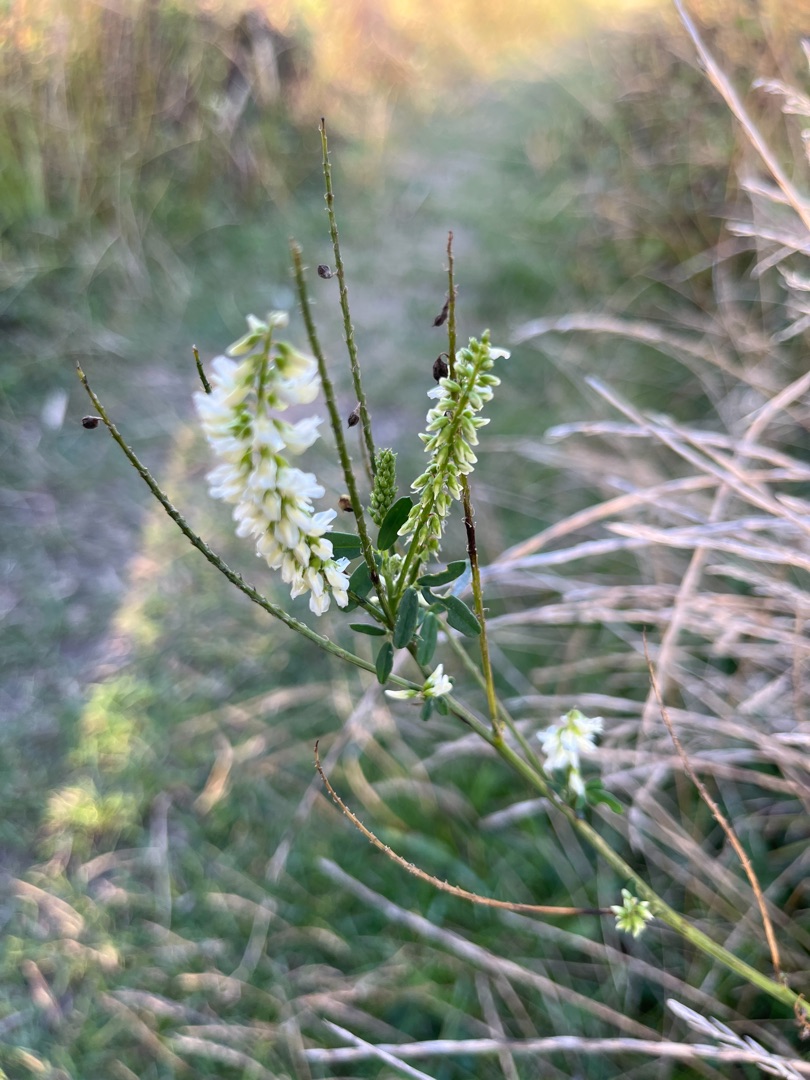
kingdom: Plantae
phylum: Tracheophyta
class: Magnoliopsida
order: Fabales
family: Fabaceae
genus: Melilotus
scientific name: Melilotus albus
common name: Hvid stenkløver
